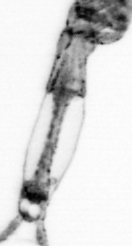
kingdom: Animalia
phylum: Arthropoda
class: Copepoda
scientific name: Copepoda
